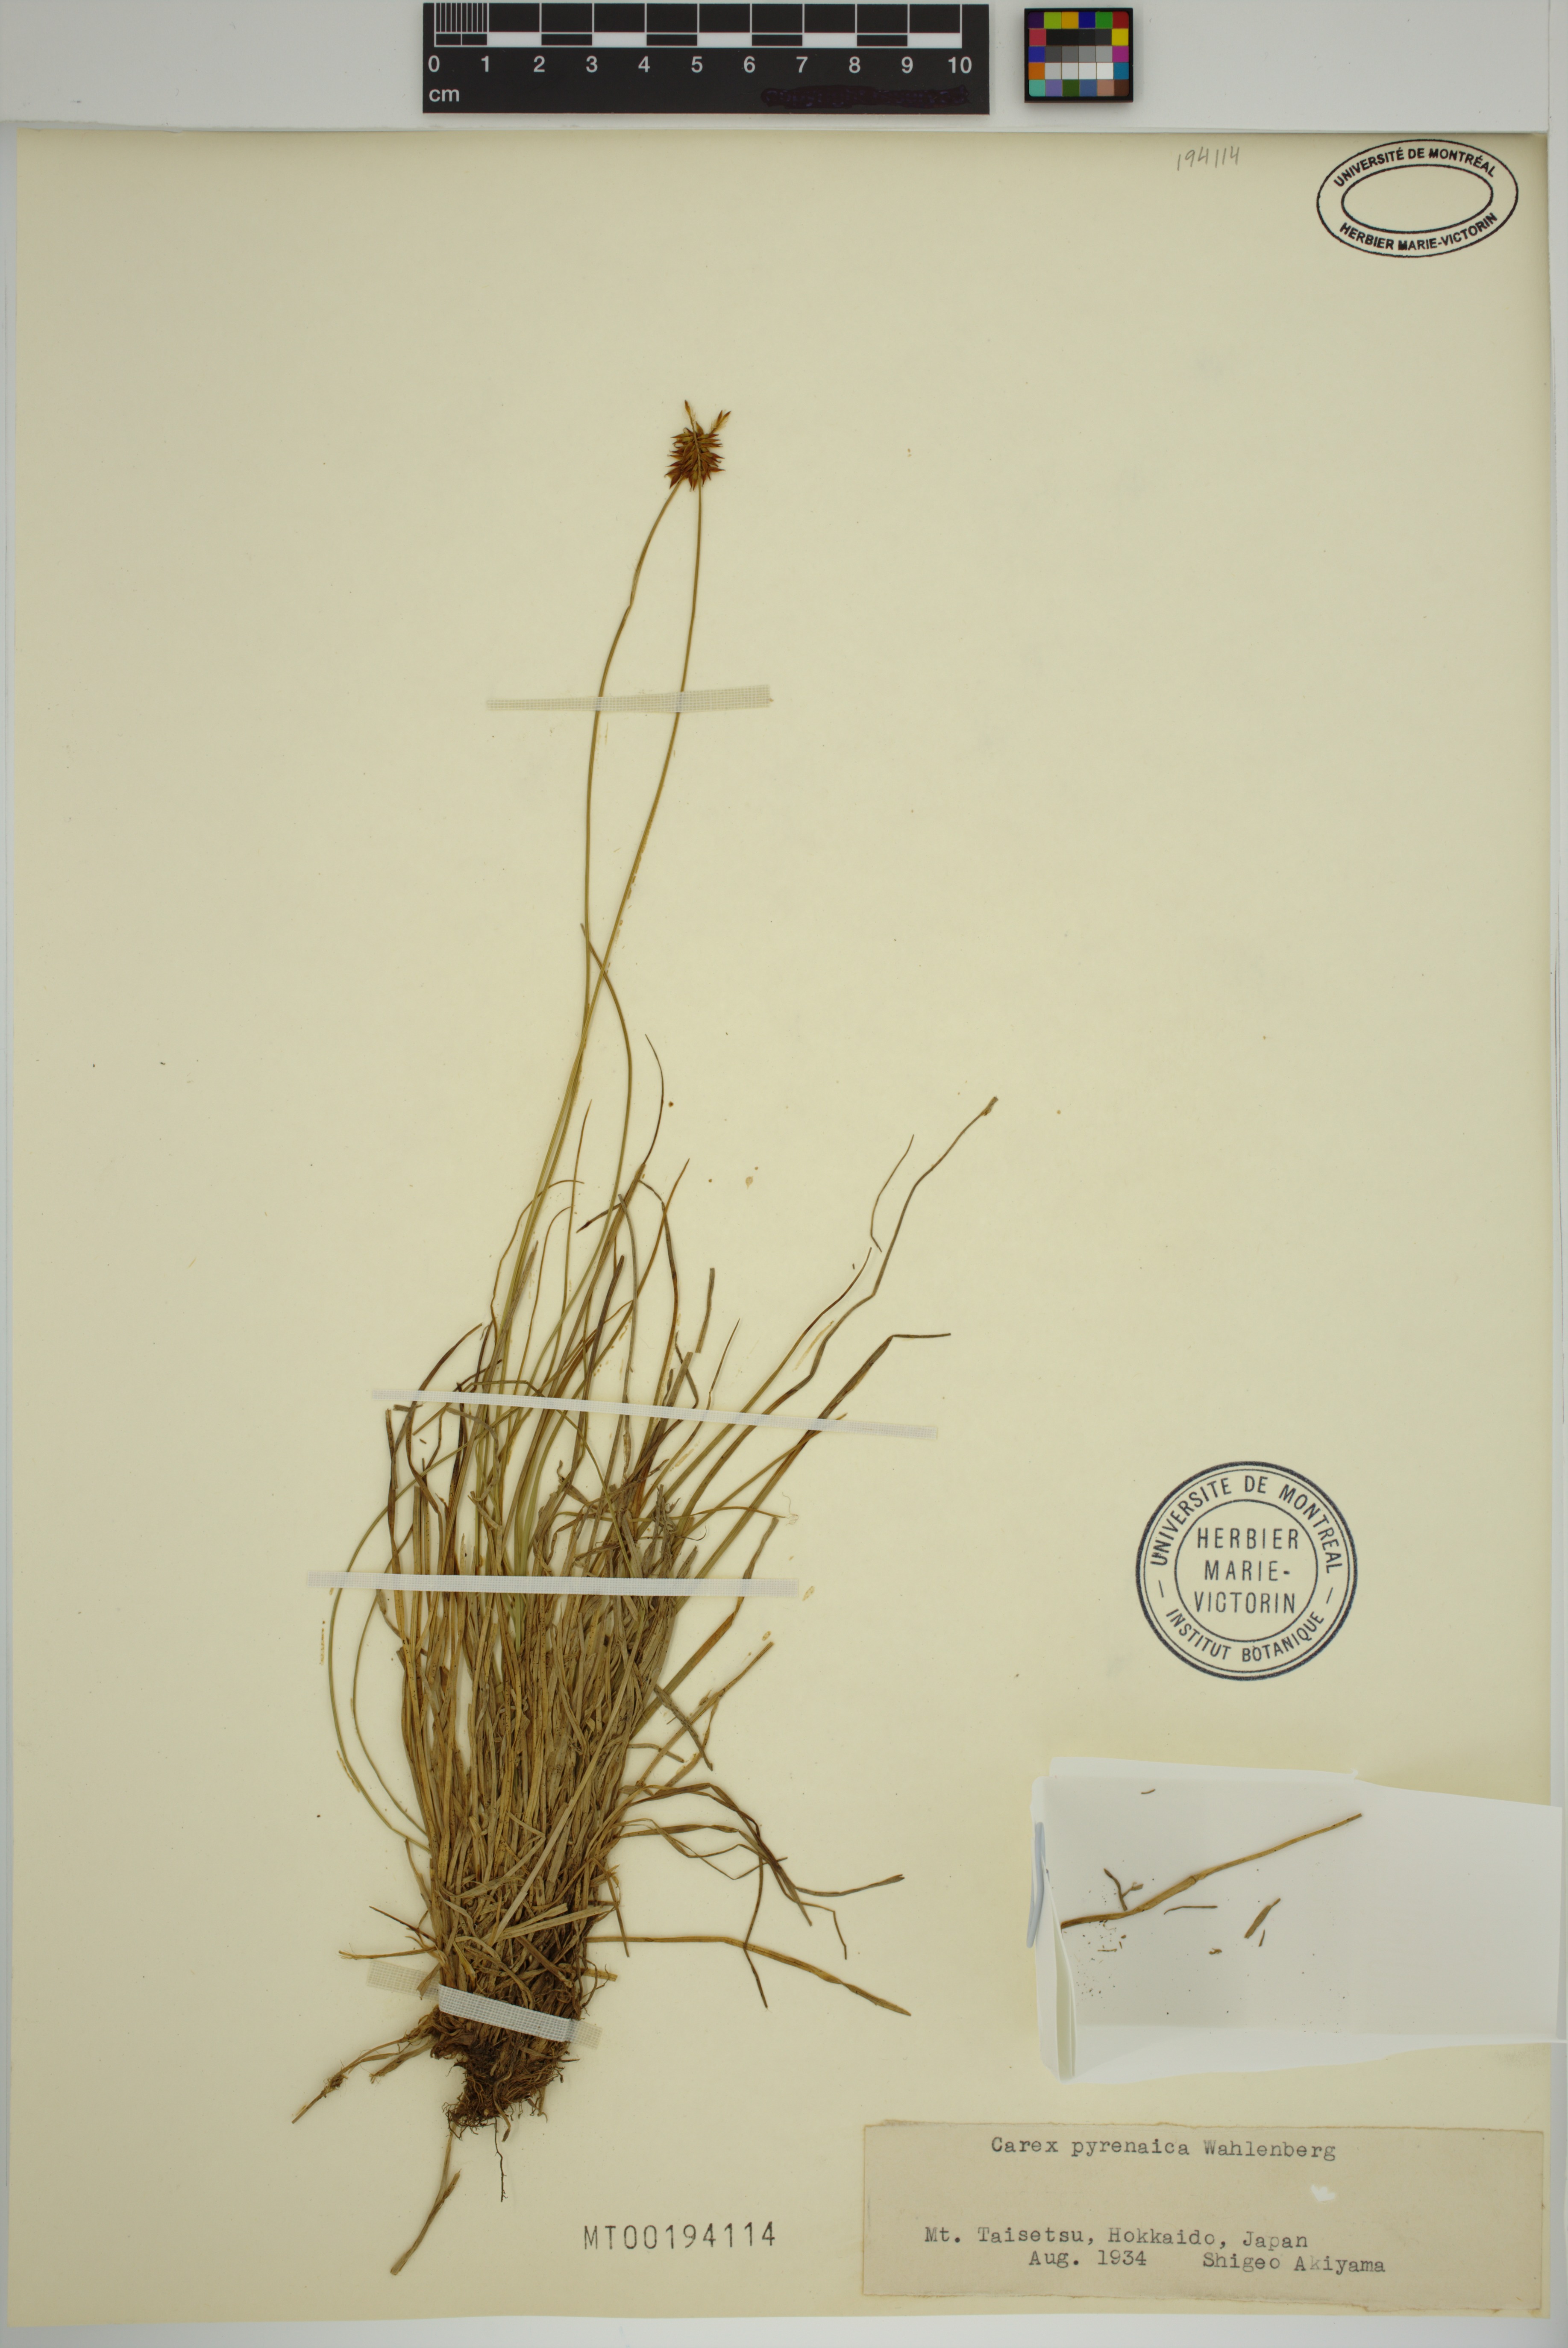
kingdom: Plantae
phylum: Tracheophyta
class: Liliopsida
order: Poales
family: Cyperaceae
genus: Carex
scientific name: Carex pyrenaica
